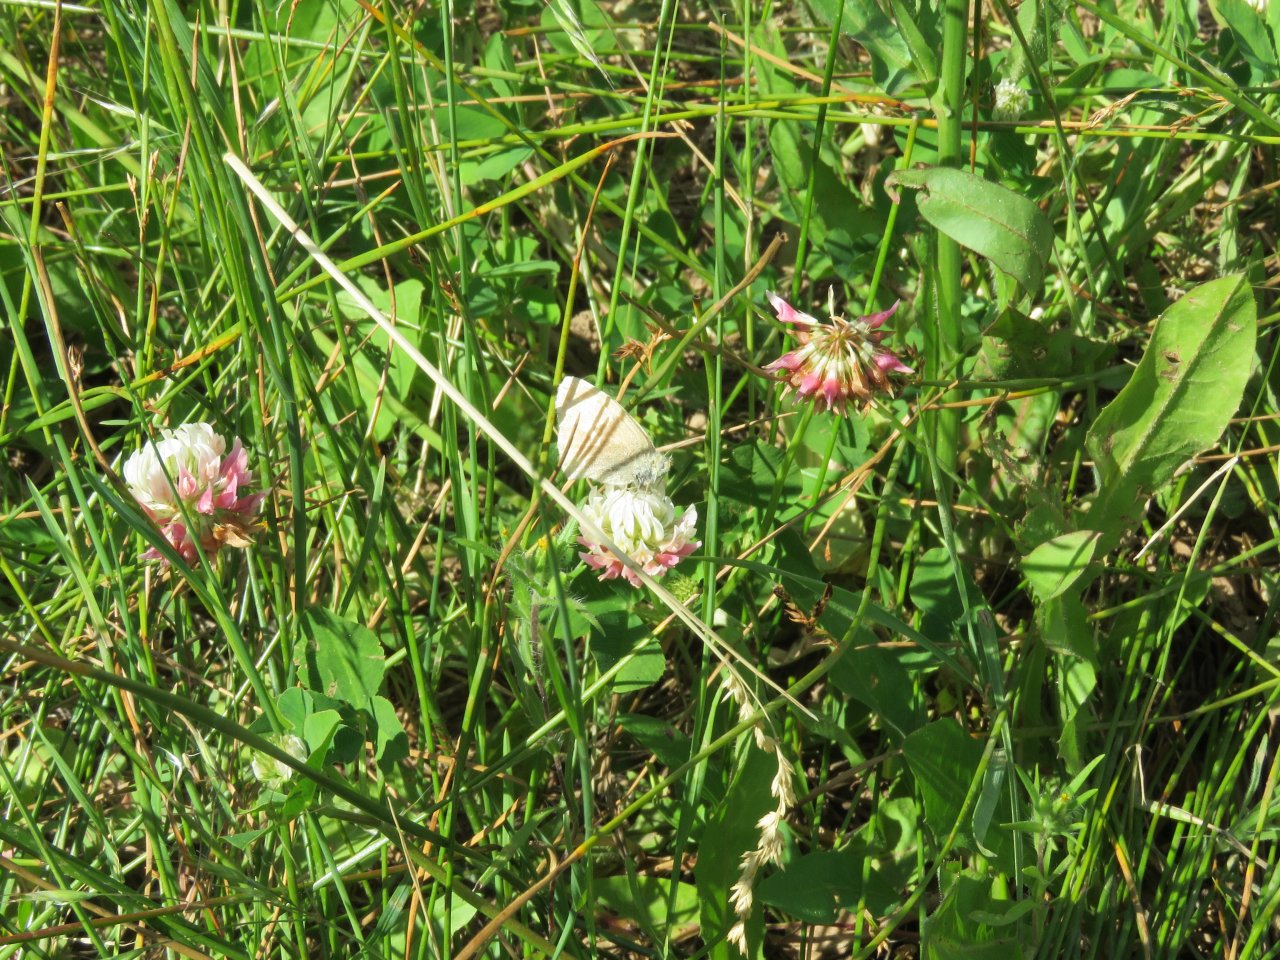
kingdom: Animalia
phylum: Arthropoda
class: Insecta
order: Lepidoptera
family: Nymphalidae
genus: Coenonympha
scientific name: Coenonympha tullia
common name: Large Heath
